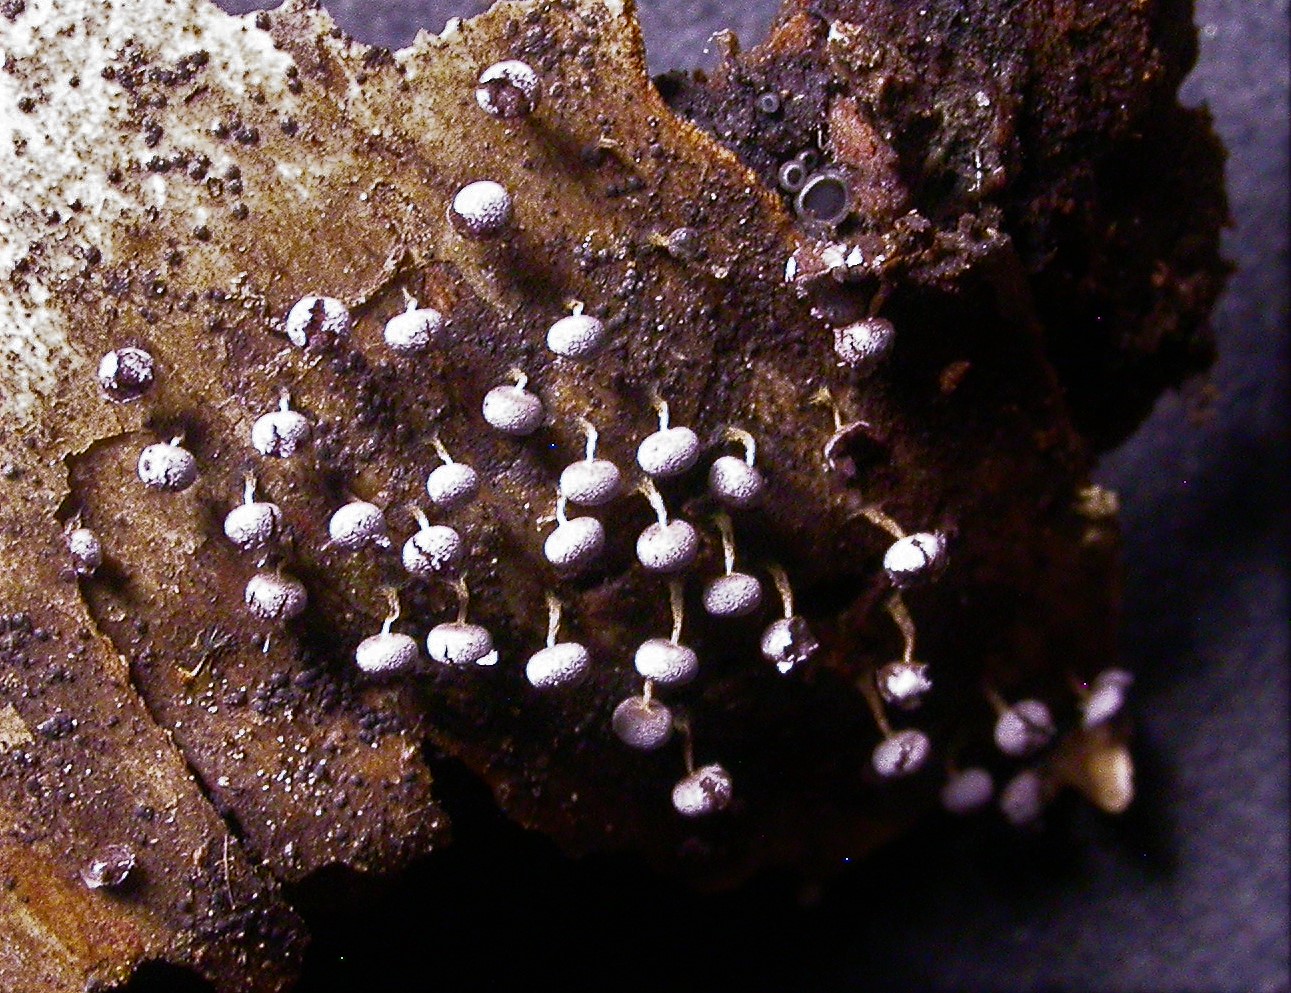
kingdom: Protozoa
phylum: Mycetozoa
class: Myxomycetes
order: Physarales
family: Physaraceae
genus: Physarum
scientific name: Physarum album
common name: nikkende støvknop
